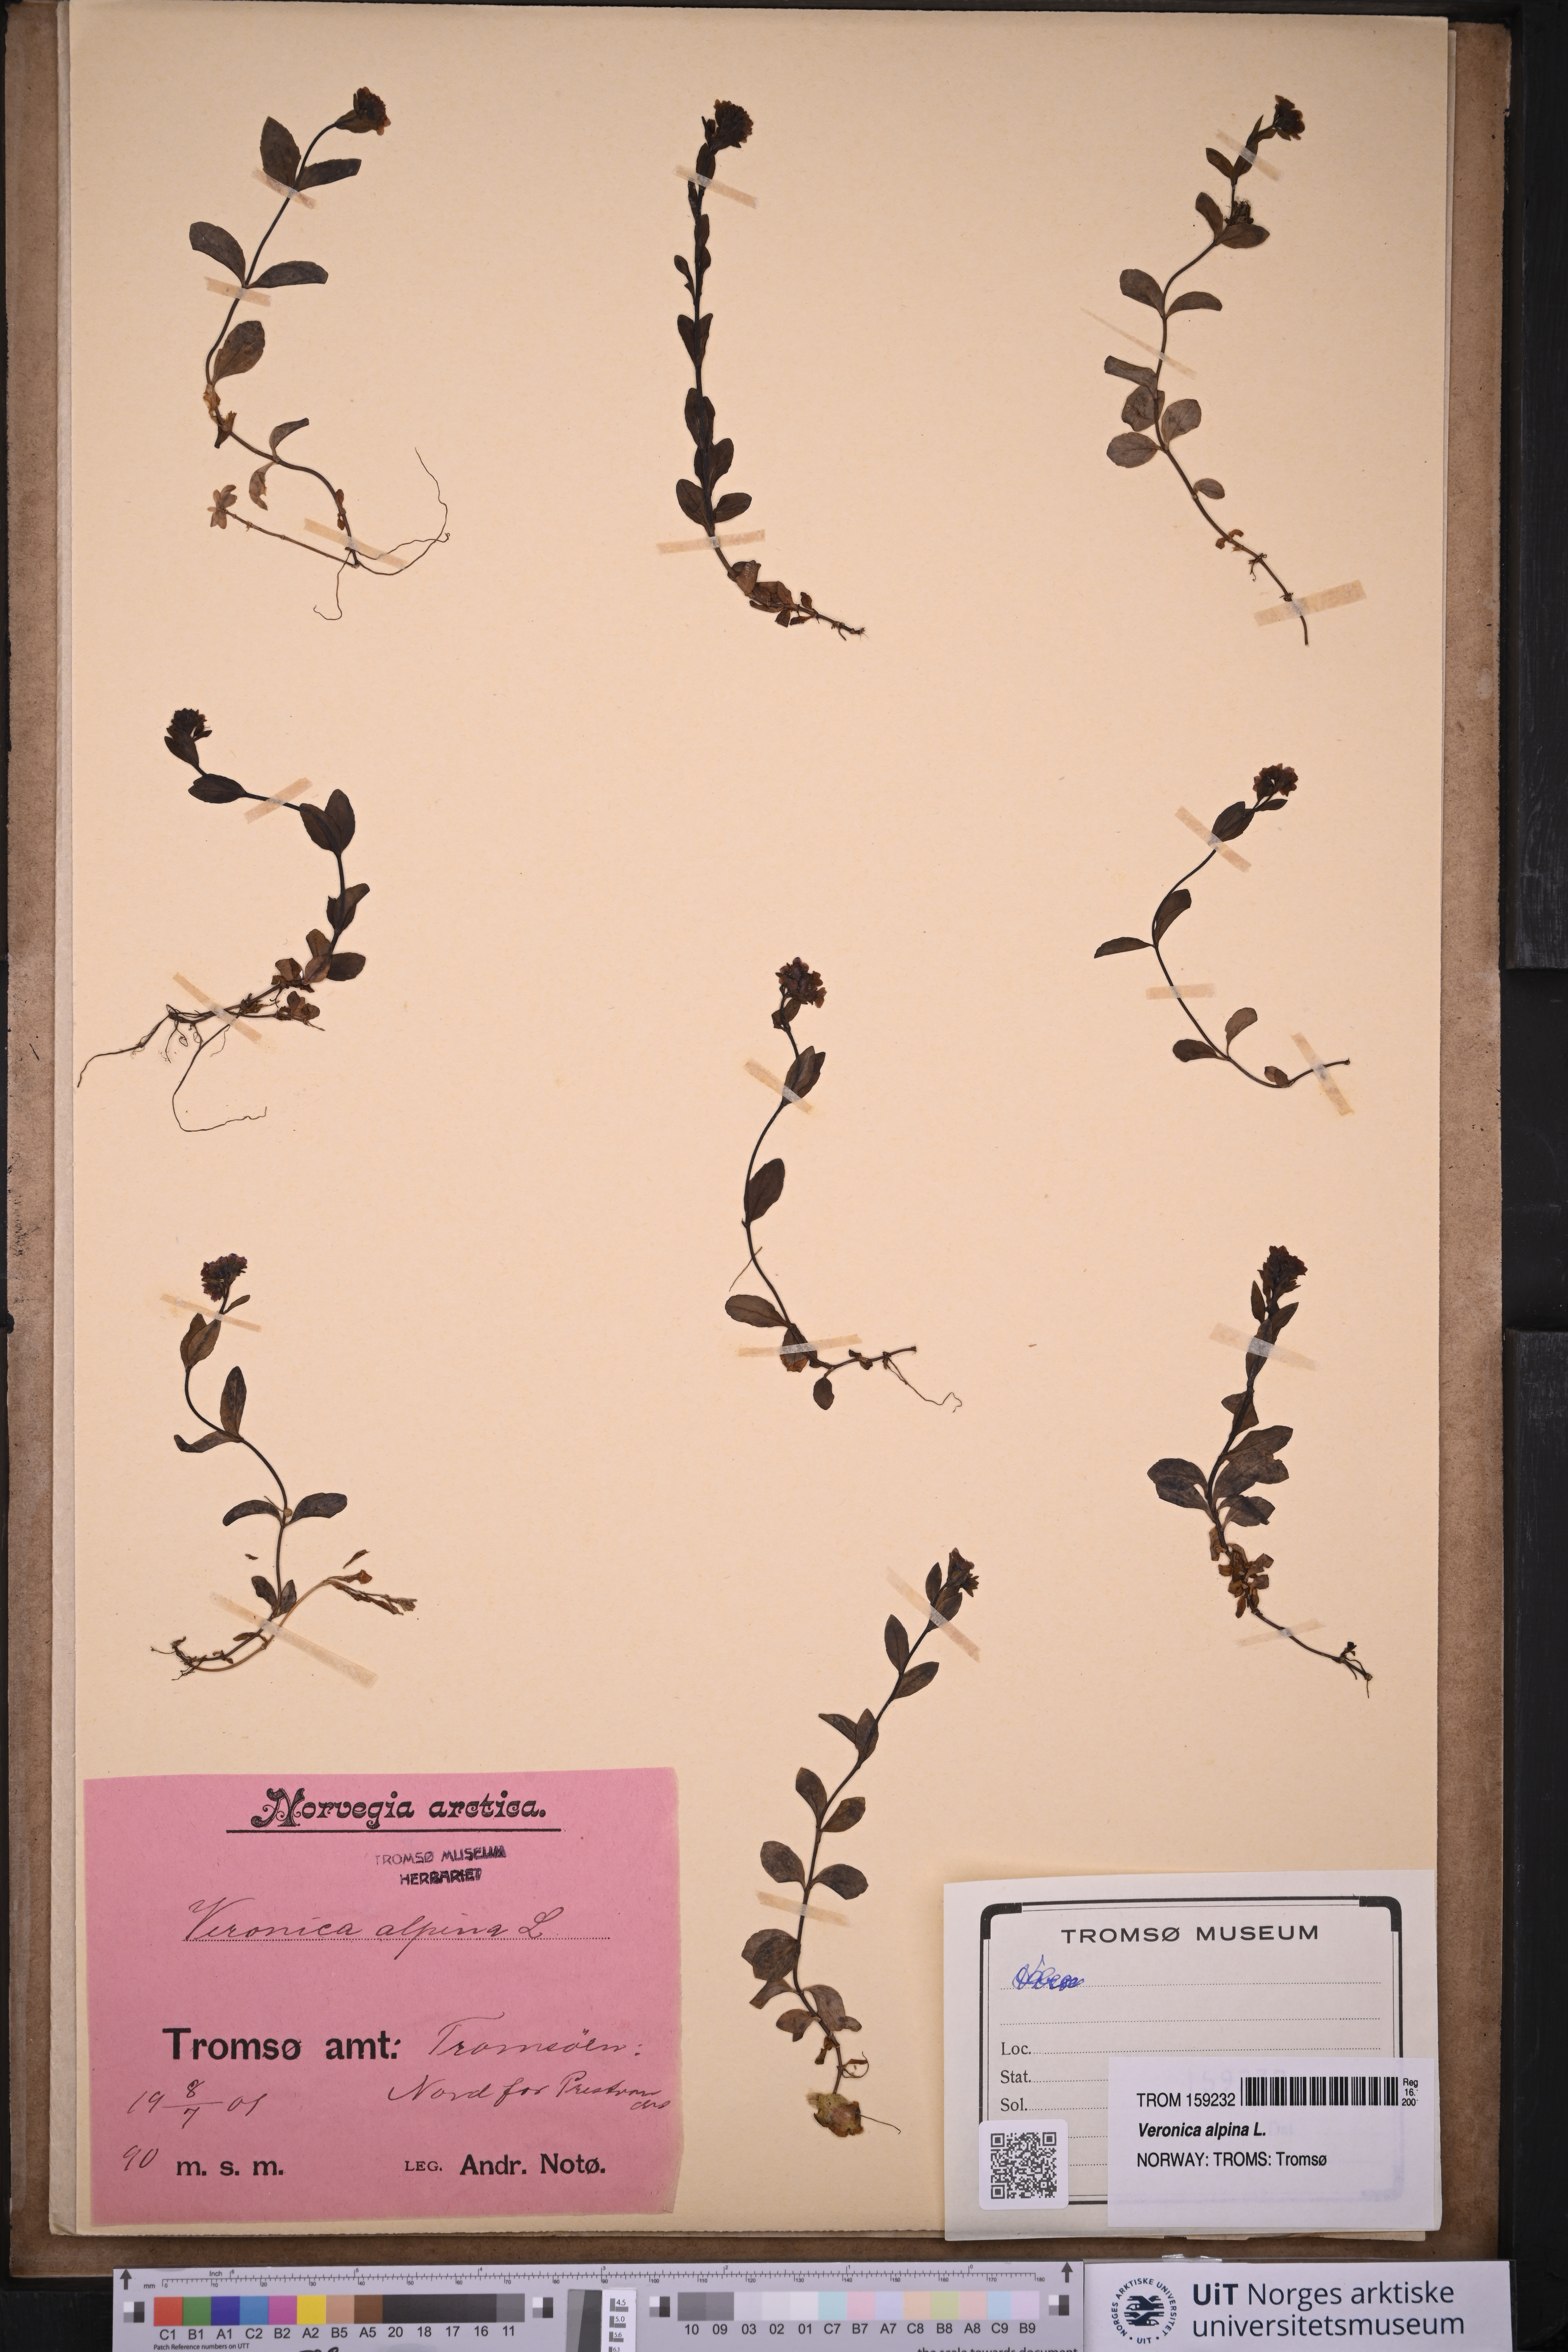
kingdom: Plantae
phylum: Tracheophyta
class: Magnoliopsida
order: Lamiales
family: Plantaginaceae
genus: Veronica
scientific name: Veronica alpina
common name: Alpine speedwell
